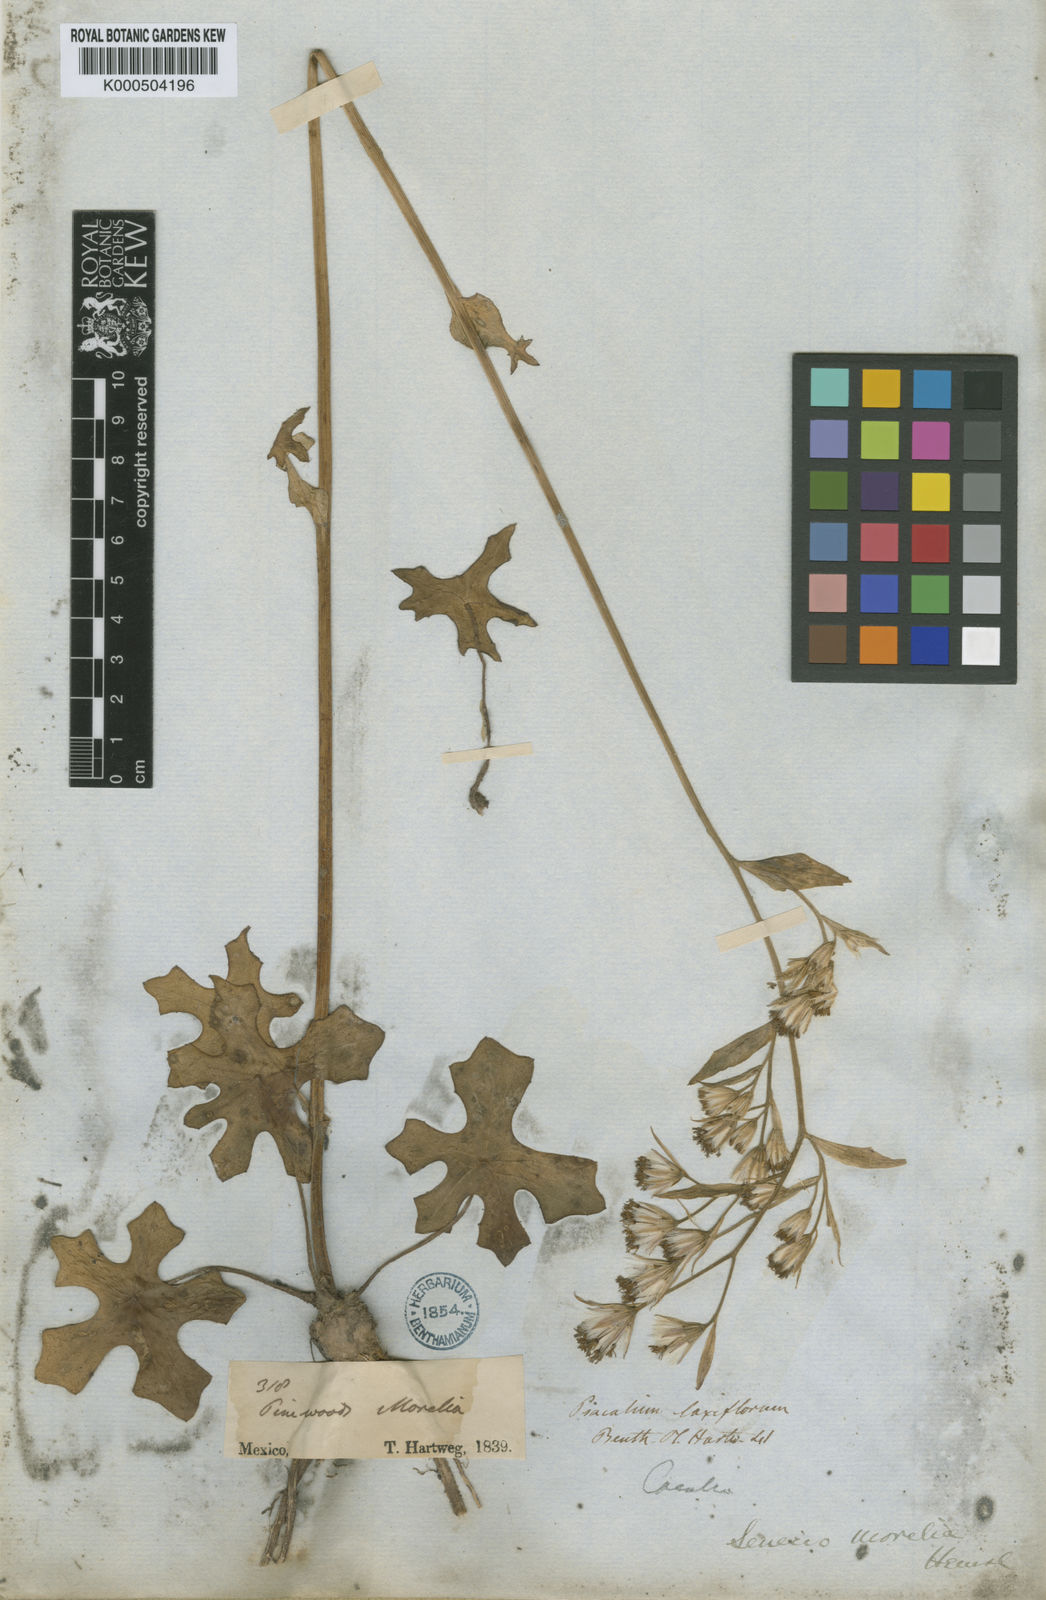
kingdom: Plantae
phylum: Tracheophyta
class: Magnoliopsida
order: Asterales
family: Asteraceae
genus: Psacalium
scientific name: Psacalium laxiflorum
